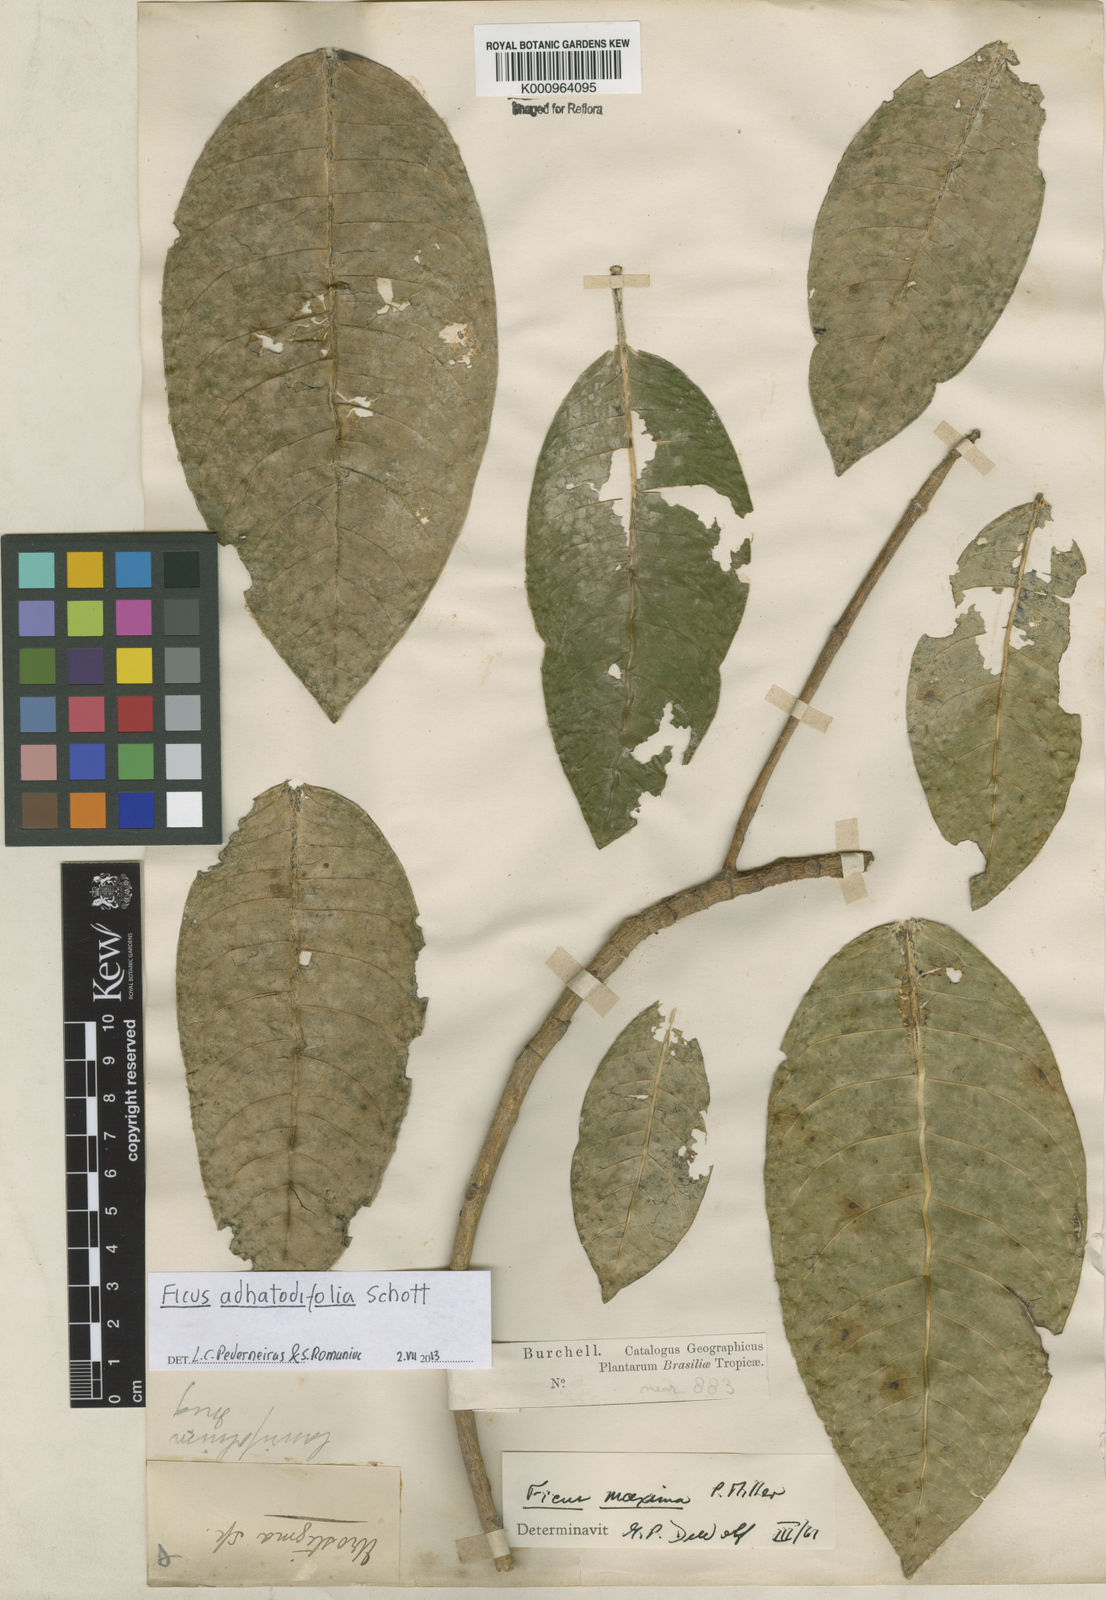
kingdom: Plantae
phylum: Tracheophyta
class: Magnoliopsida
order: Rosales
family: Moraceae
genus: Ficus
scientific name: Ficus
